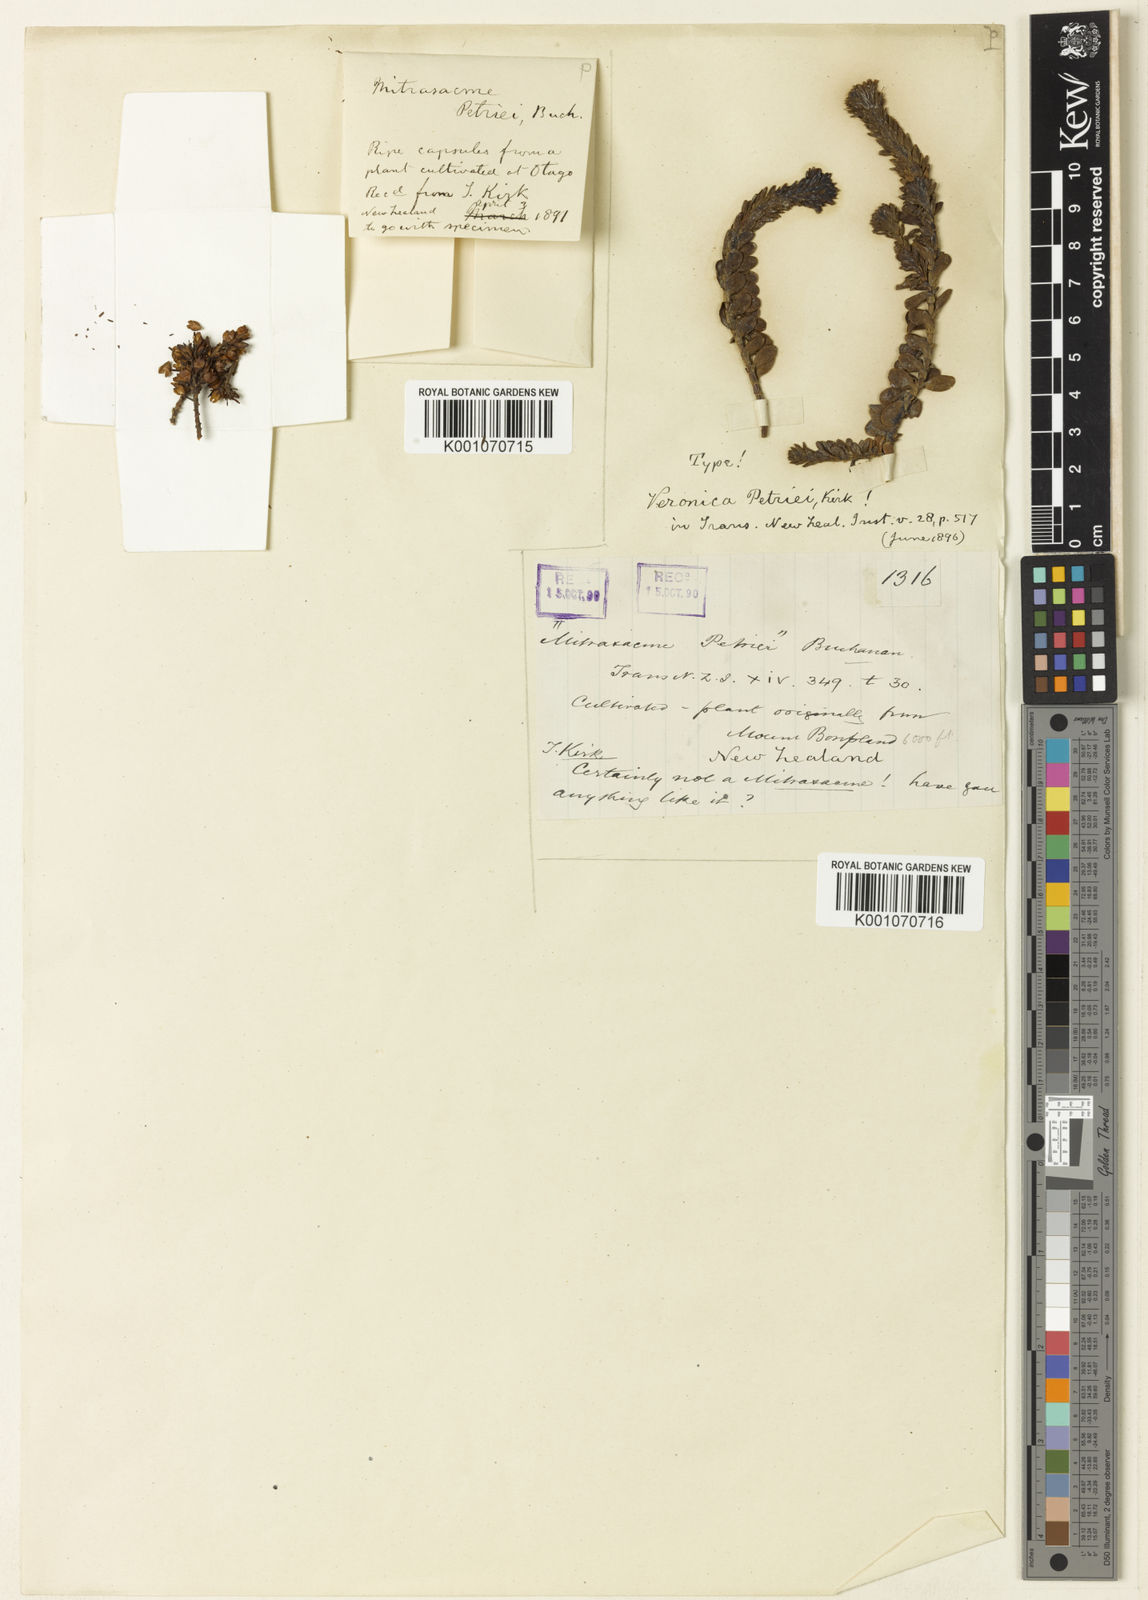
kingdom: Plantae
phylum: Tracheophyta
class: Magnoliopsida
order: Lamiales
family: Plantaginaceae
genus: Veronica
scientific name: Veronica petriei
